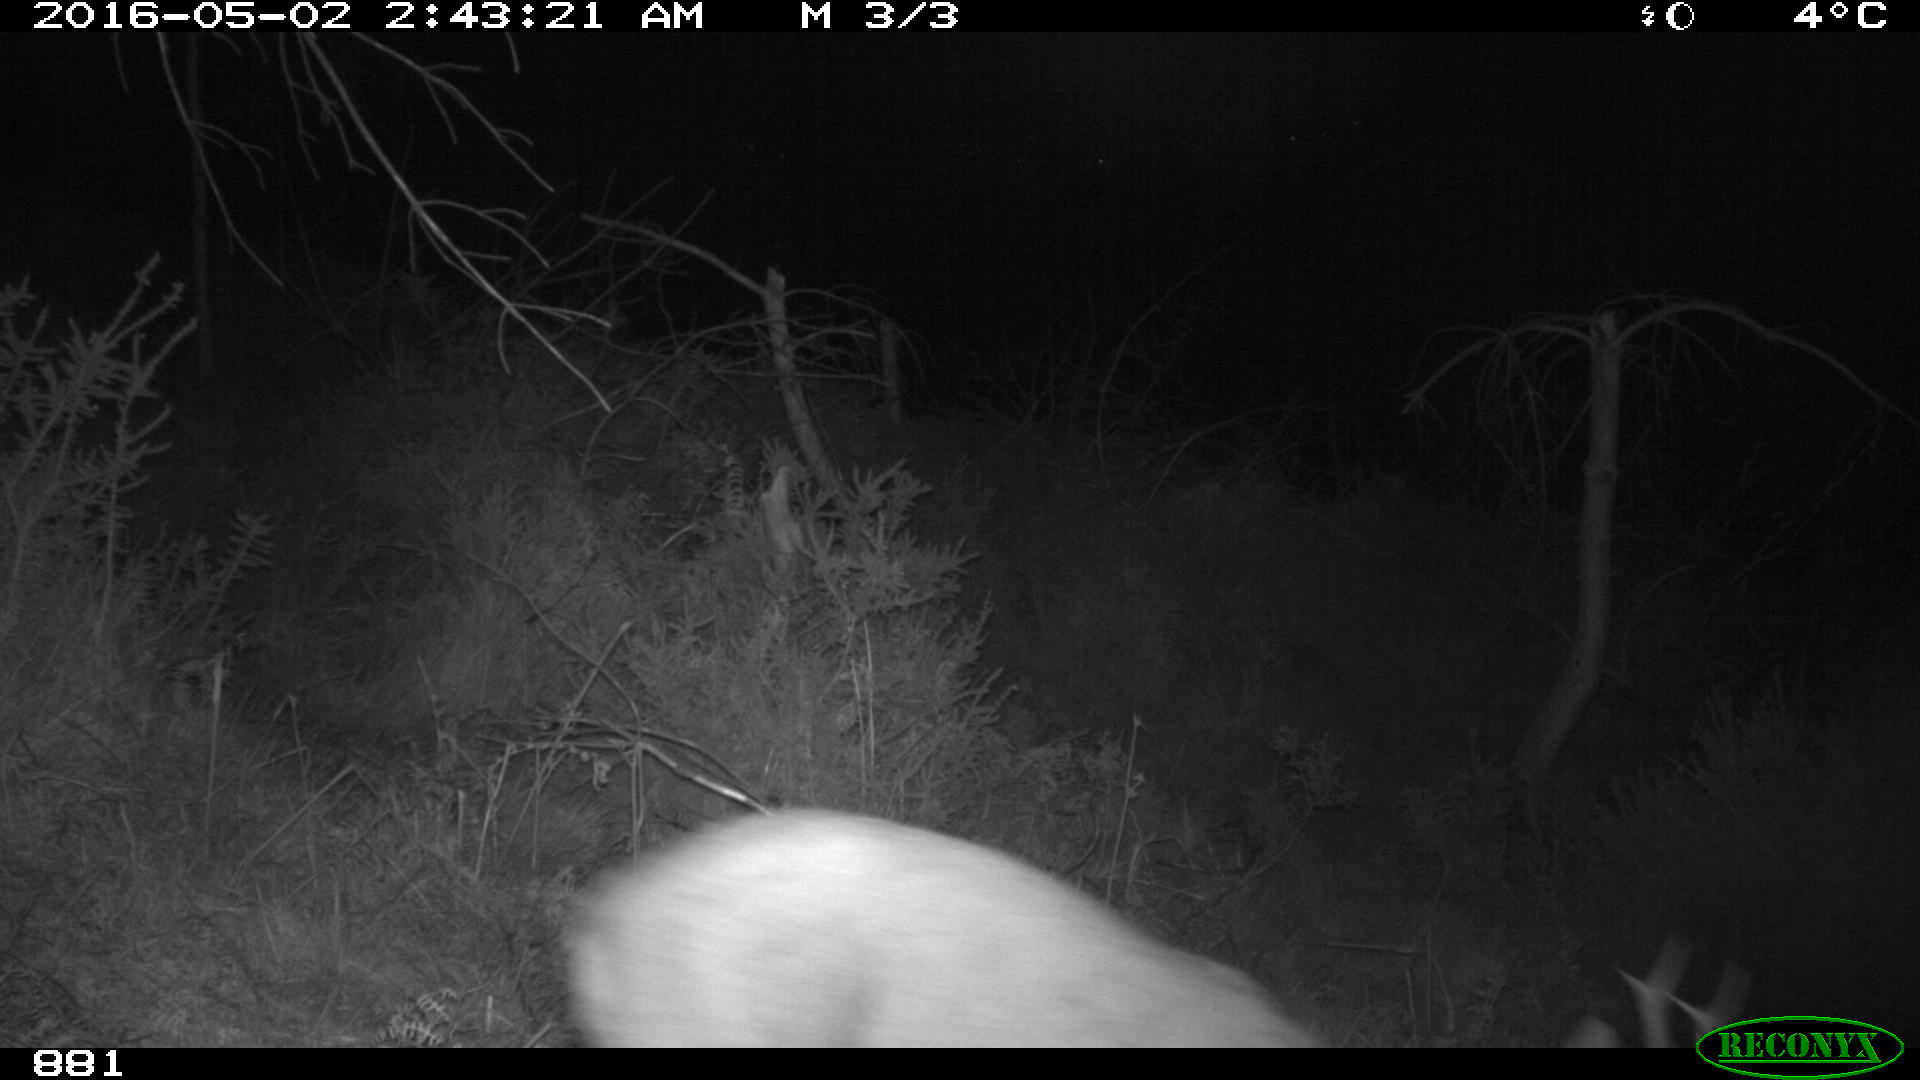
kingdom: Animalia
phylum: Chordata
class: Mammalia
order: Artiodactyla
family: Cervidae
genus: Capreolus
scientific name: Capreolus capreolus
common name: Western roe deer
